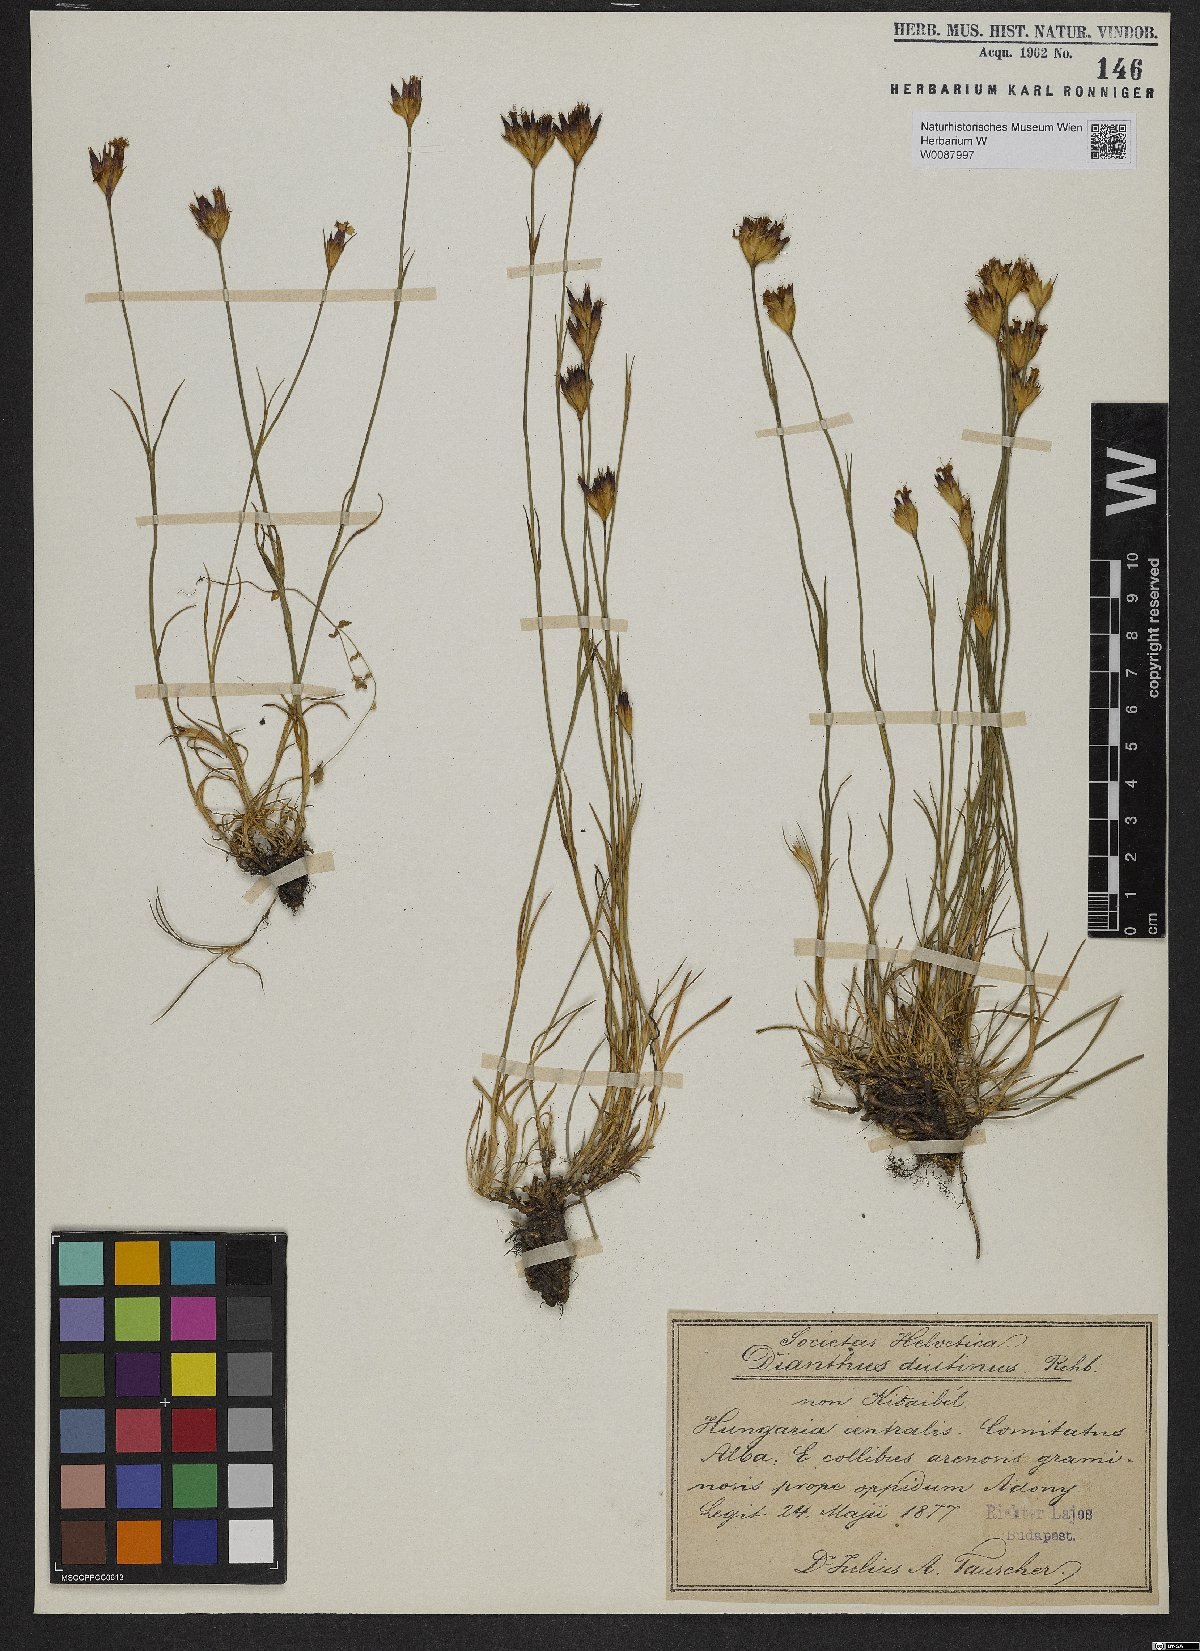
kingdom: Plantae
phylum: Tracheophyta
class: Magnoliopsida
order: Caryophyllales
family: Caryophyllaceae
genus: Dianthus
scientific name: Dianthus pontederae
